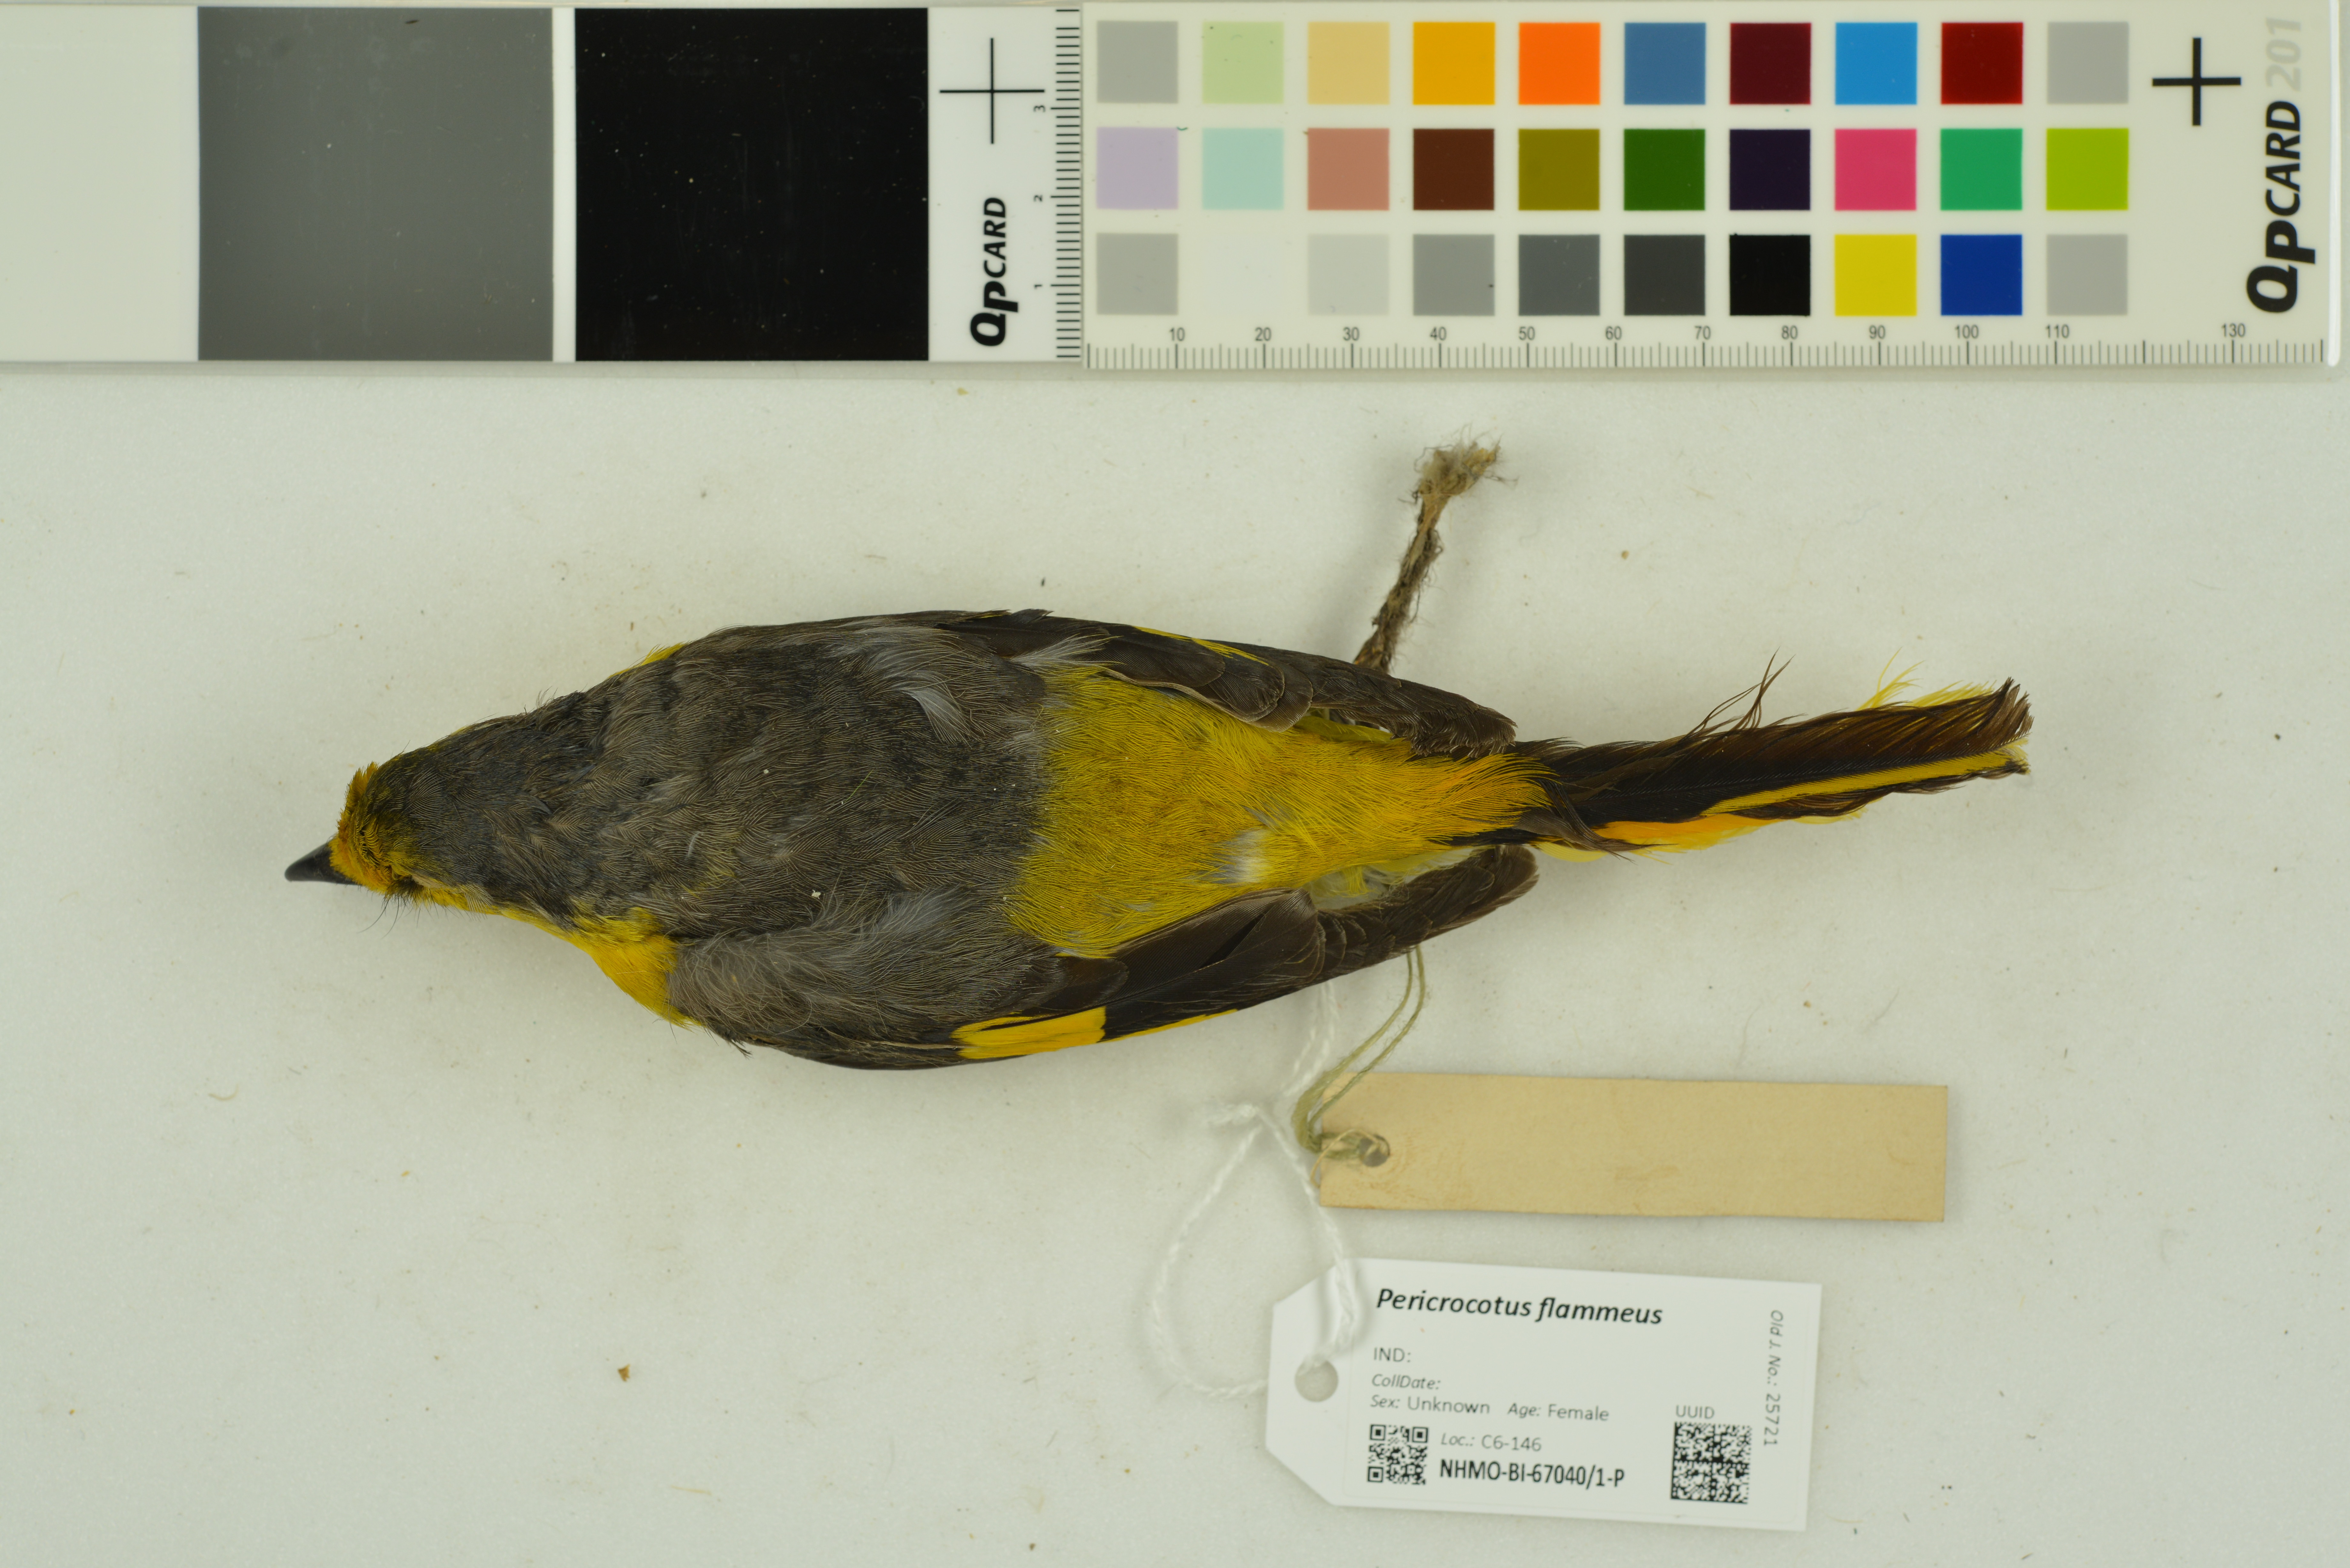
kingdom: Animalia
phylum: Chordata
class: Aves
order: Passeriformes
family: Campephagidae
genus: Pericrocotus
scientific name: Pericrocotus flammeus
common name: Orange minivet
